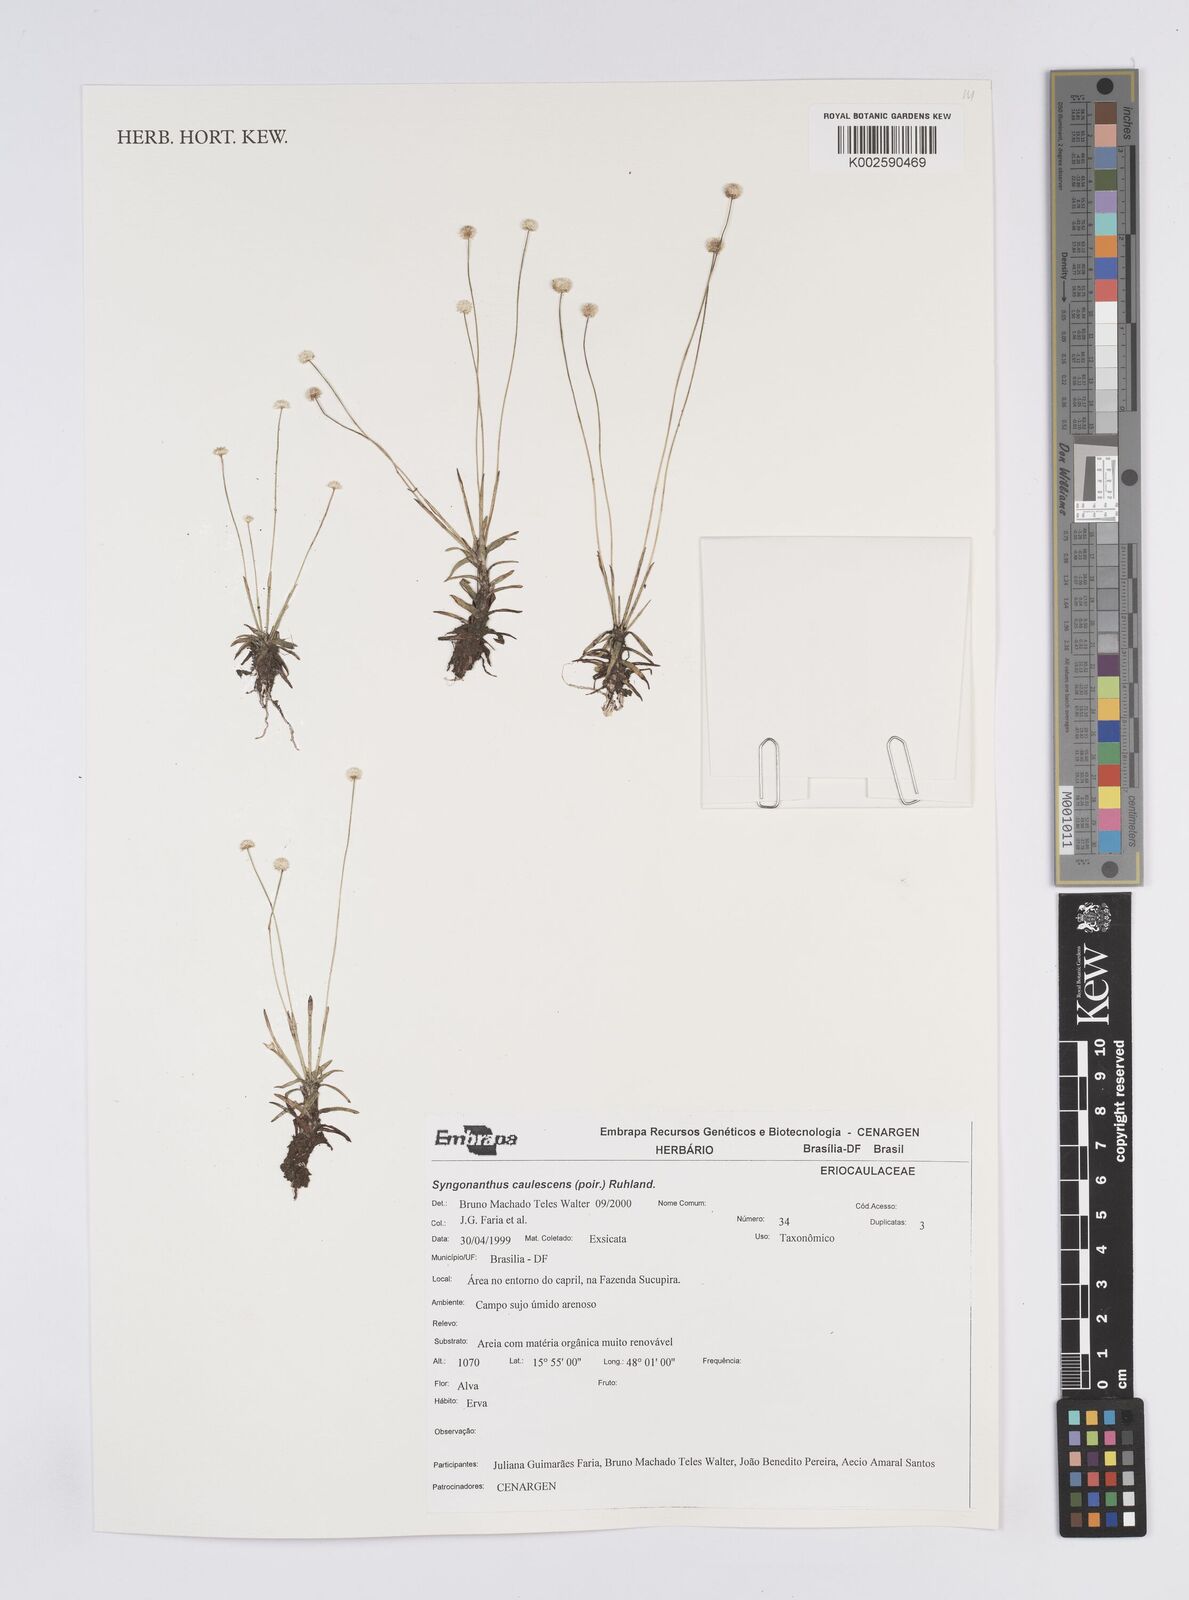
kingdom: Plantae
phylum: Tracheophyta
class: Liliopsida
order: Poales
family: Eriocaulaceae
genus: Syngonanthus
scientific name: Syngonanthus caulescens
